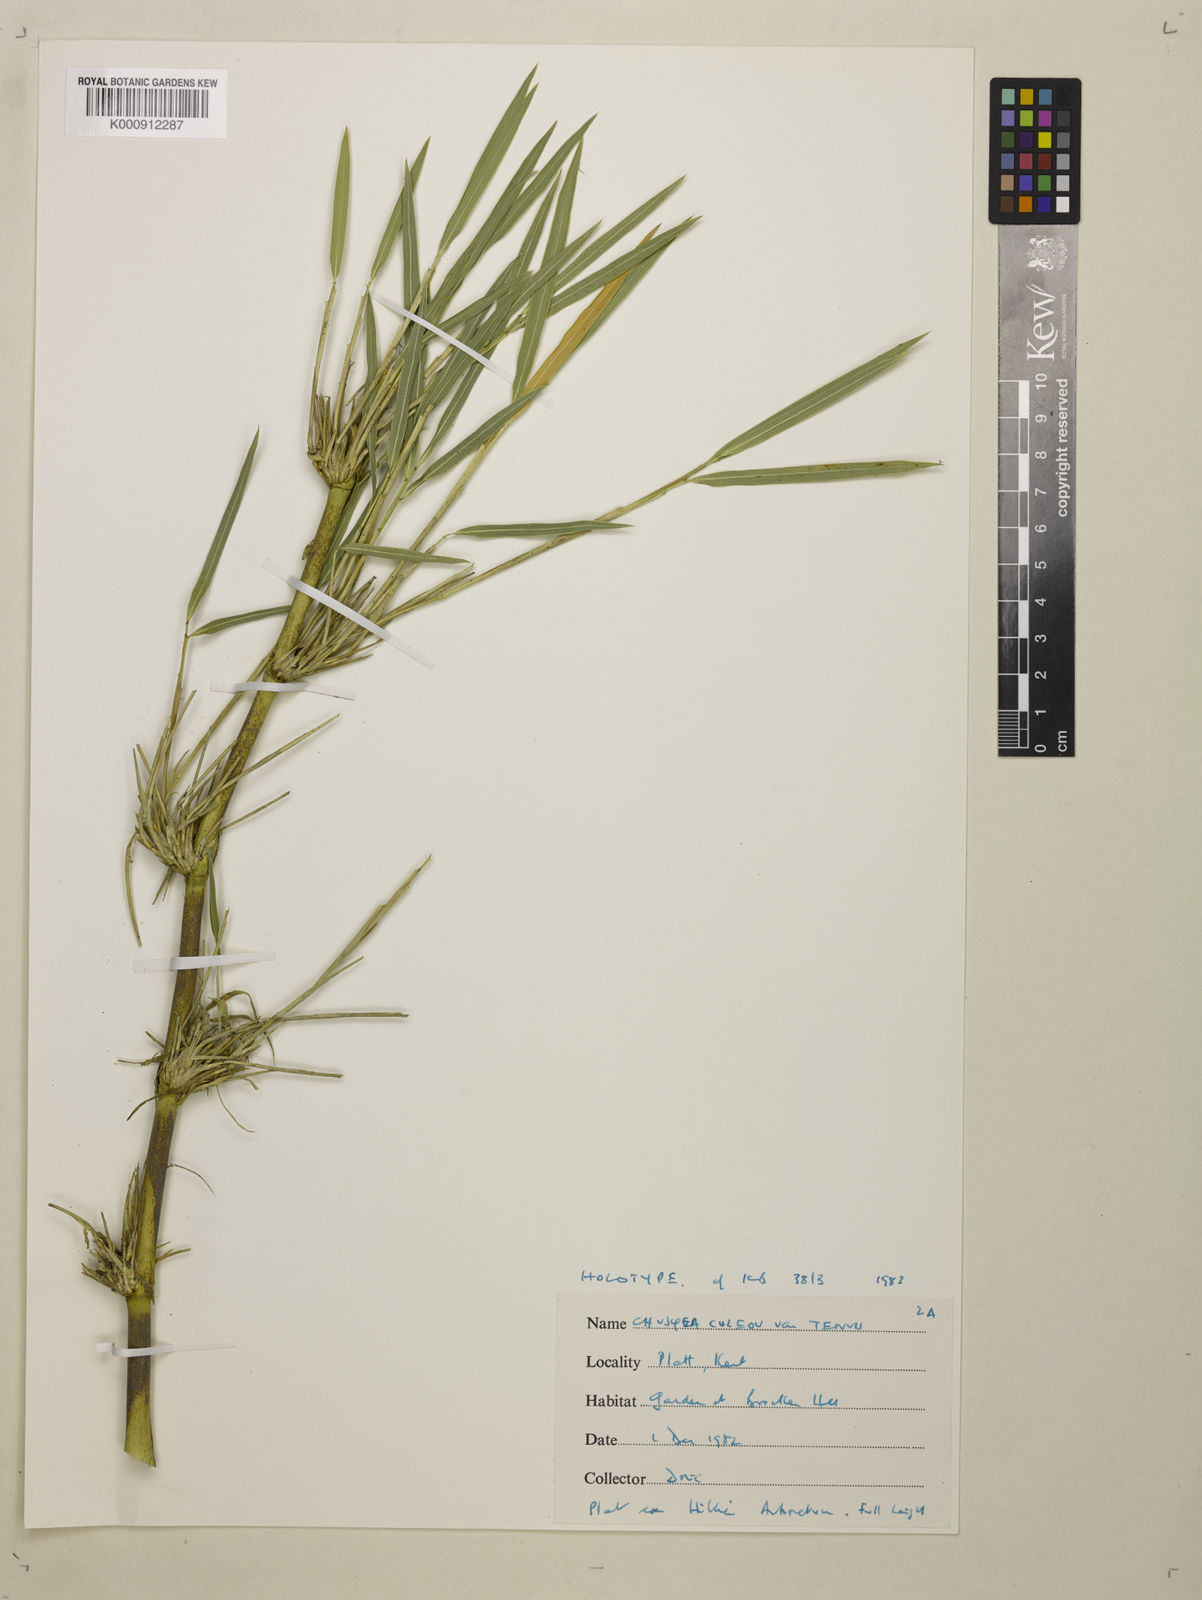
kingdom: Plantae
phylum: Tracheophyta
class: Liliopsida
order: Poales
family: Poaceae
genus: Chusquea
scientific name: Chusquea
